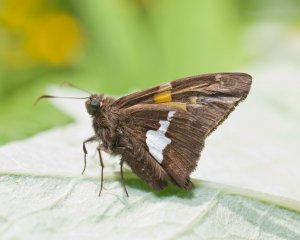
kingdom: Animalia
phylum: Arthropoda
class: Insecta
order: Lepidoptera
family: Hesperiidae
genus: Epargyreus
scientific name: Epargyreus clarus
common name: Silver-spotted Skipper
